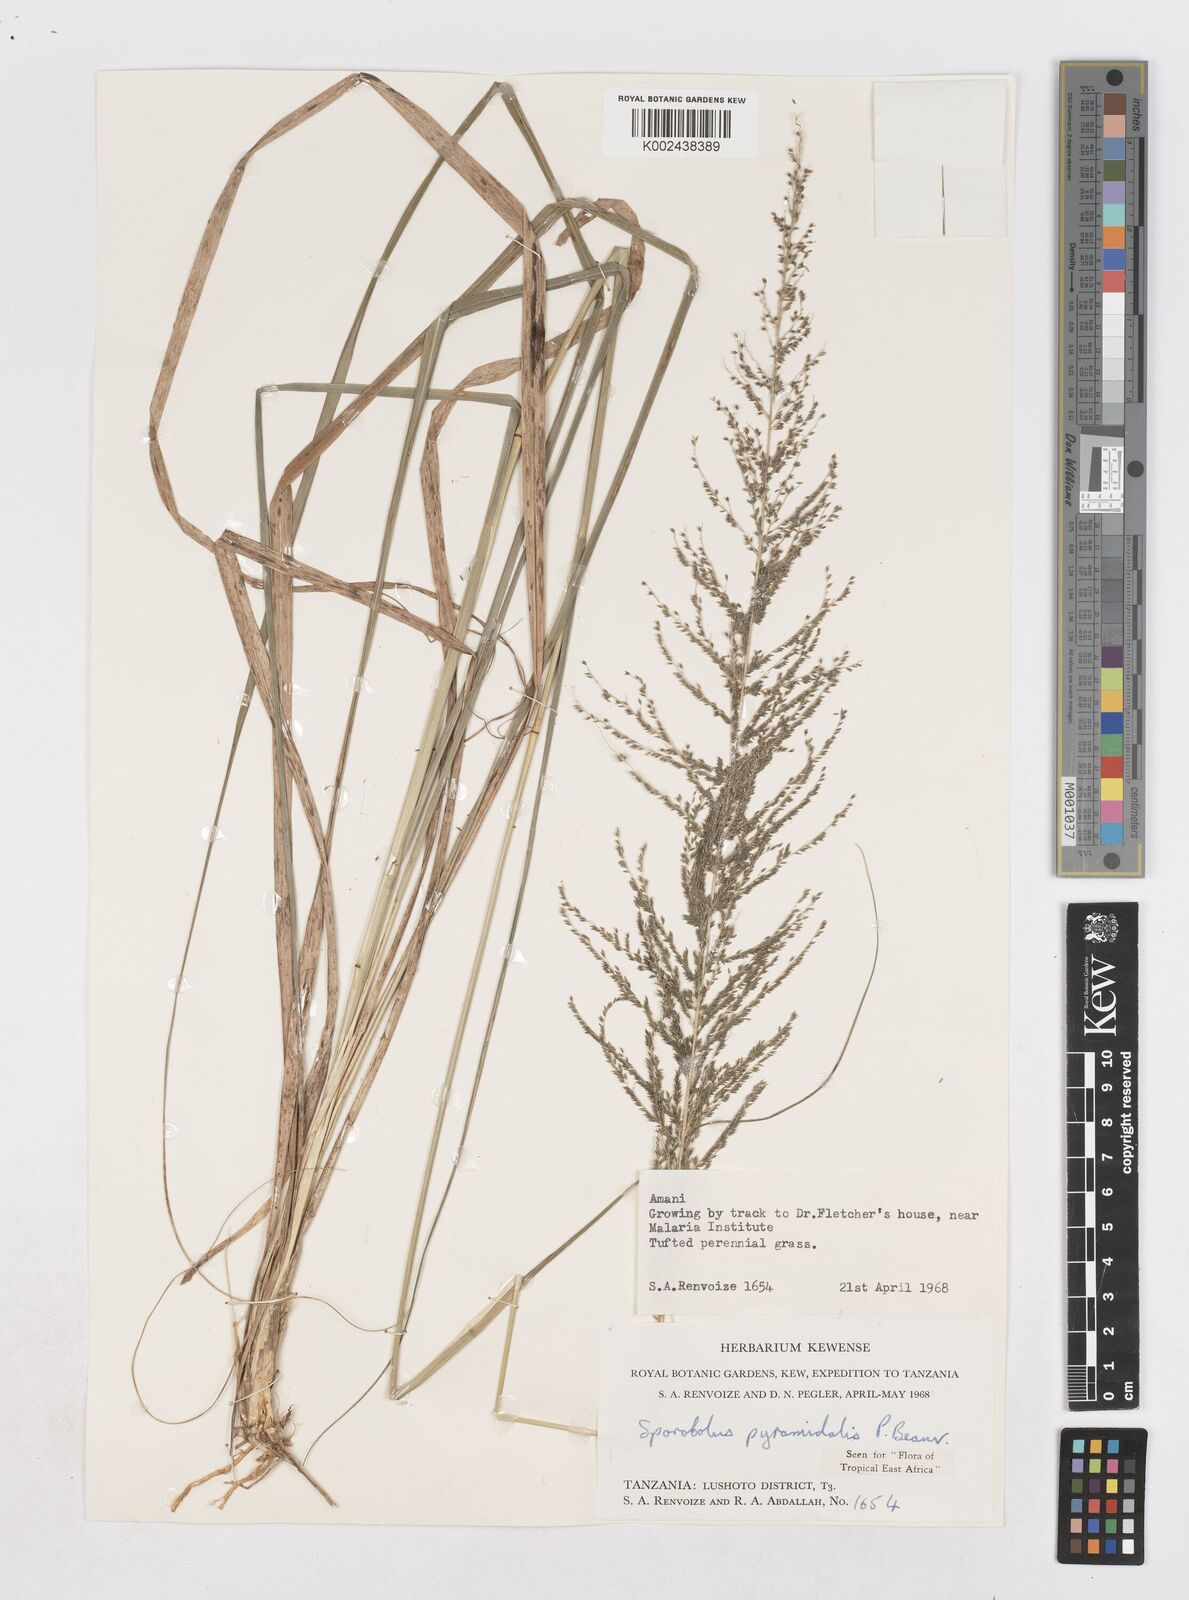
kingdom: Plantae
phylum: Tracheophyta
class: Liliopsida
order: Poales
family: Poaceae
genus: Sporobolus
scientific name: Sporobolus pyramidalis
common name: West indian dropseed
